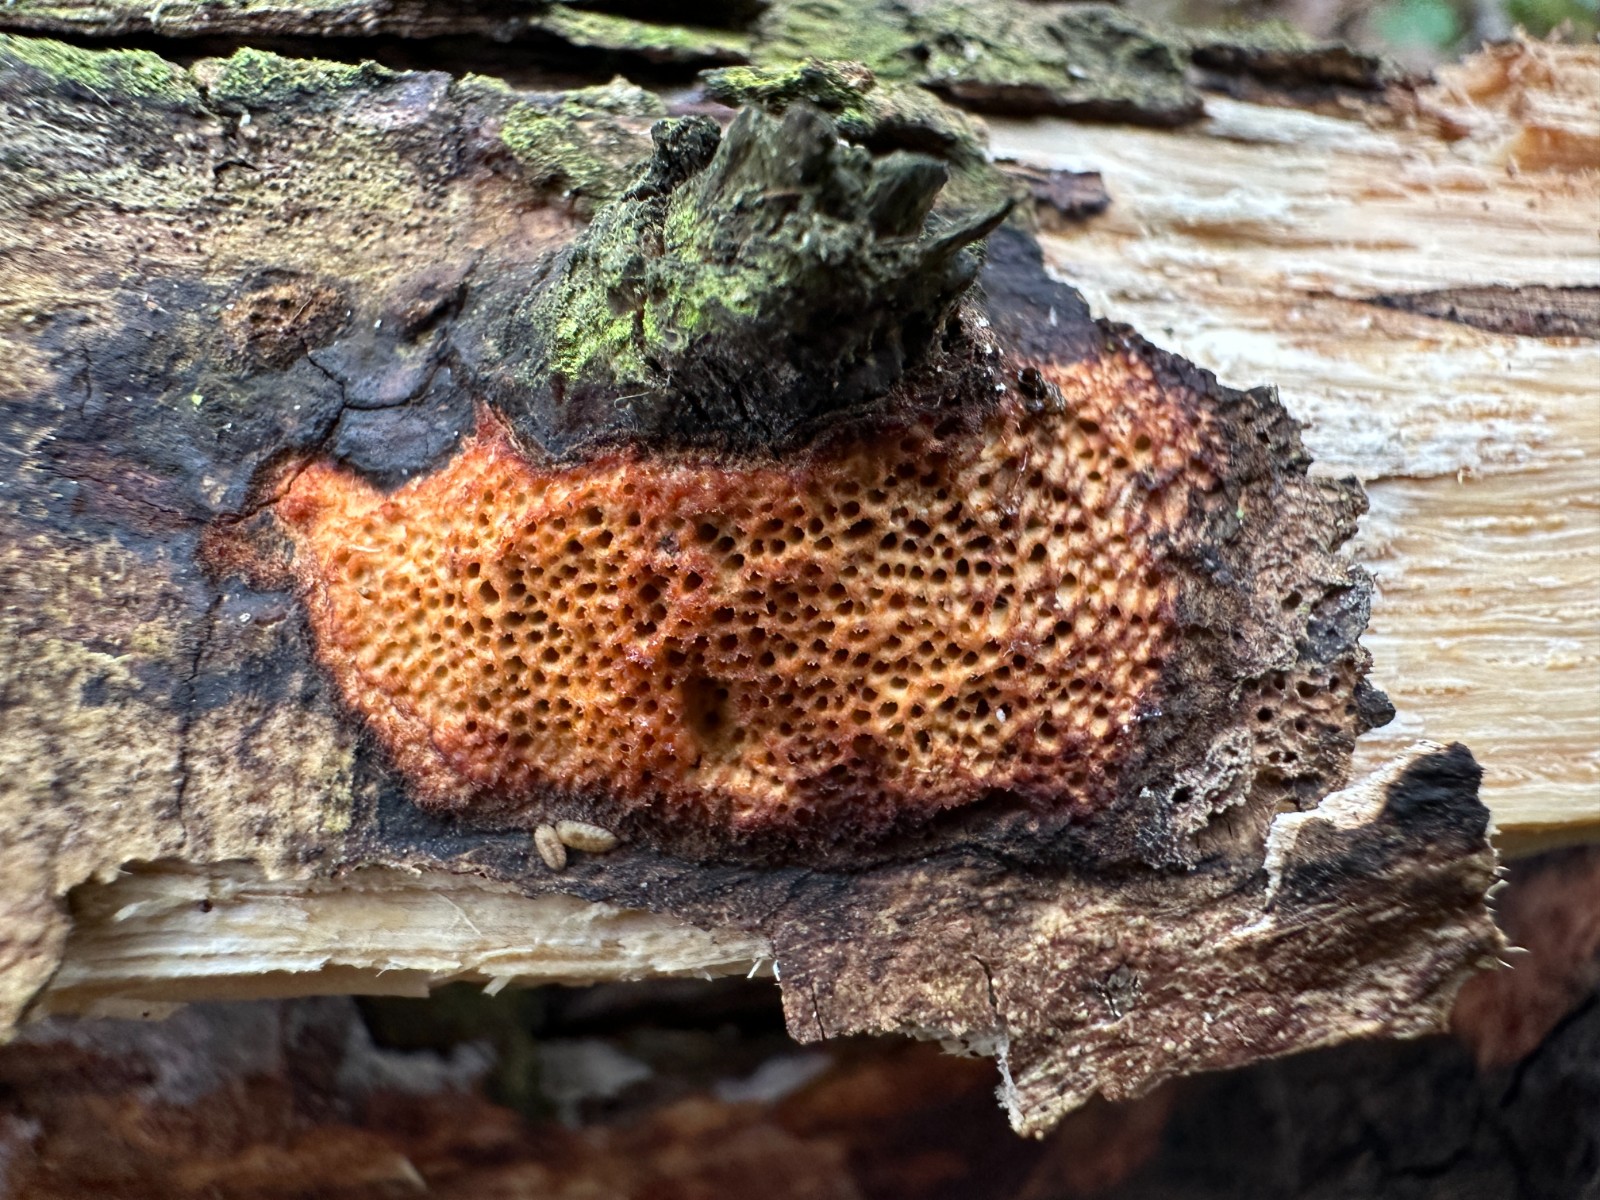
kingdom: Fungi
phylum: Basidiomycota
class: Agaricomycetes
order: Polyporales
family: Polyporaceae
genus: Szczepkamyces
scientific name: Szczepkamyces campestris
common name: hasselporesvamp
